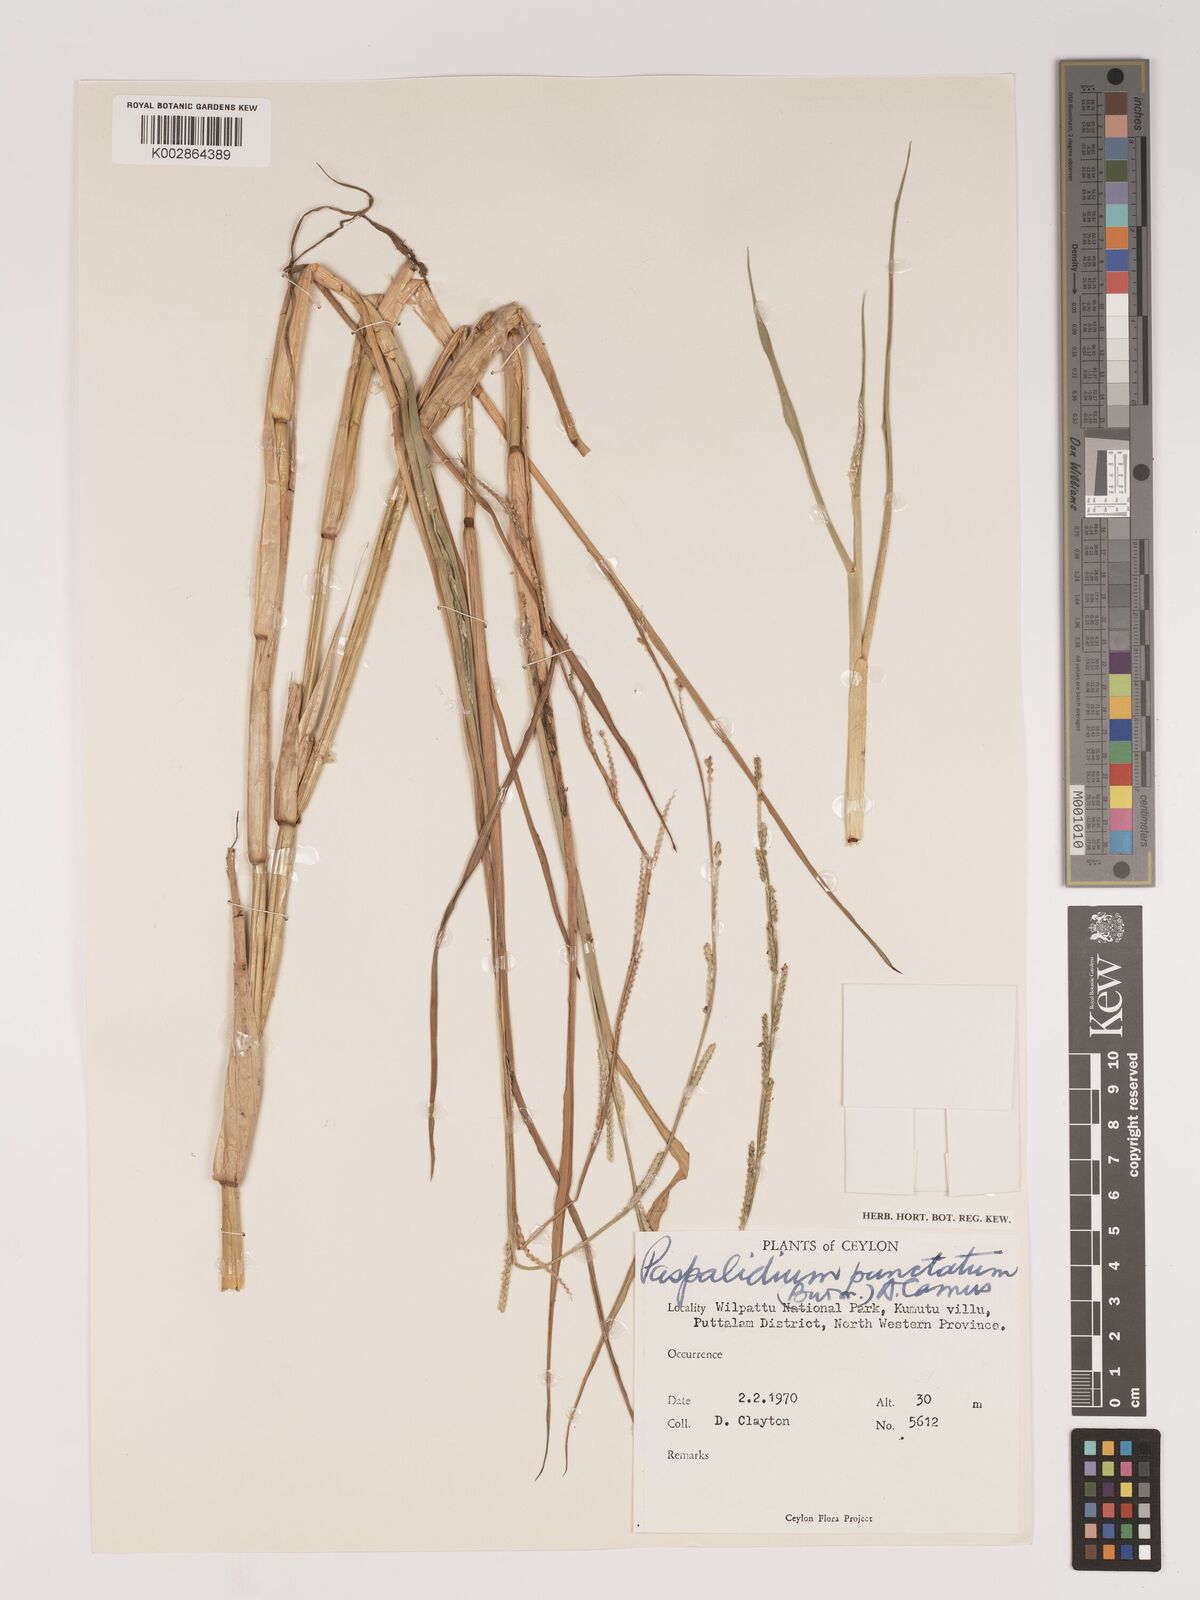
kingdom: Plantae
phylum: Tracheophyta
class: Liliopsida
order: Poales
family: Poaceae
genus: Setaria
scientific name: Setaria punctata
